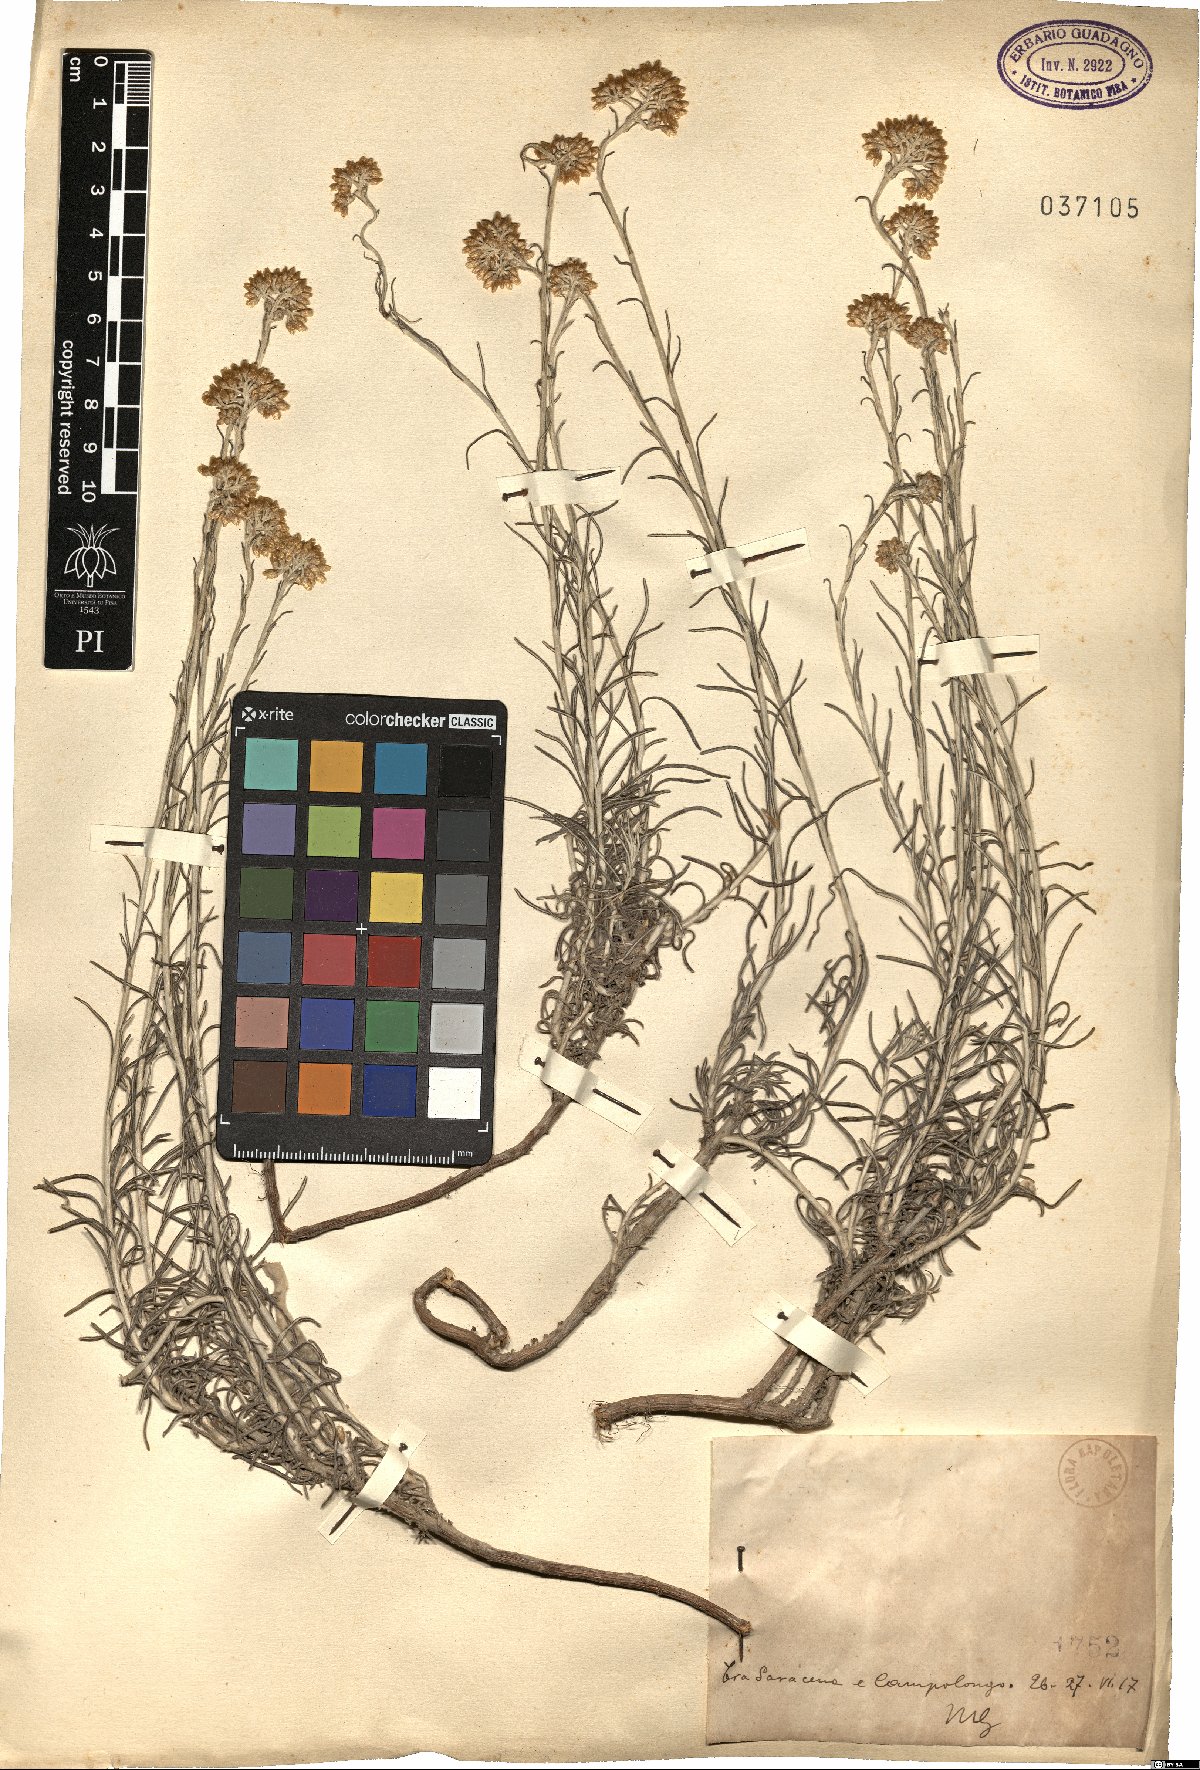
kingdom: Plantae
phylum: Tracheophyta
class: Magnoliopsida
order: Asterales
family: Asteraceae
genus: Helichrysum
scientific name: Helichrysum
